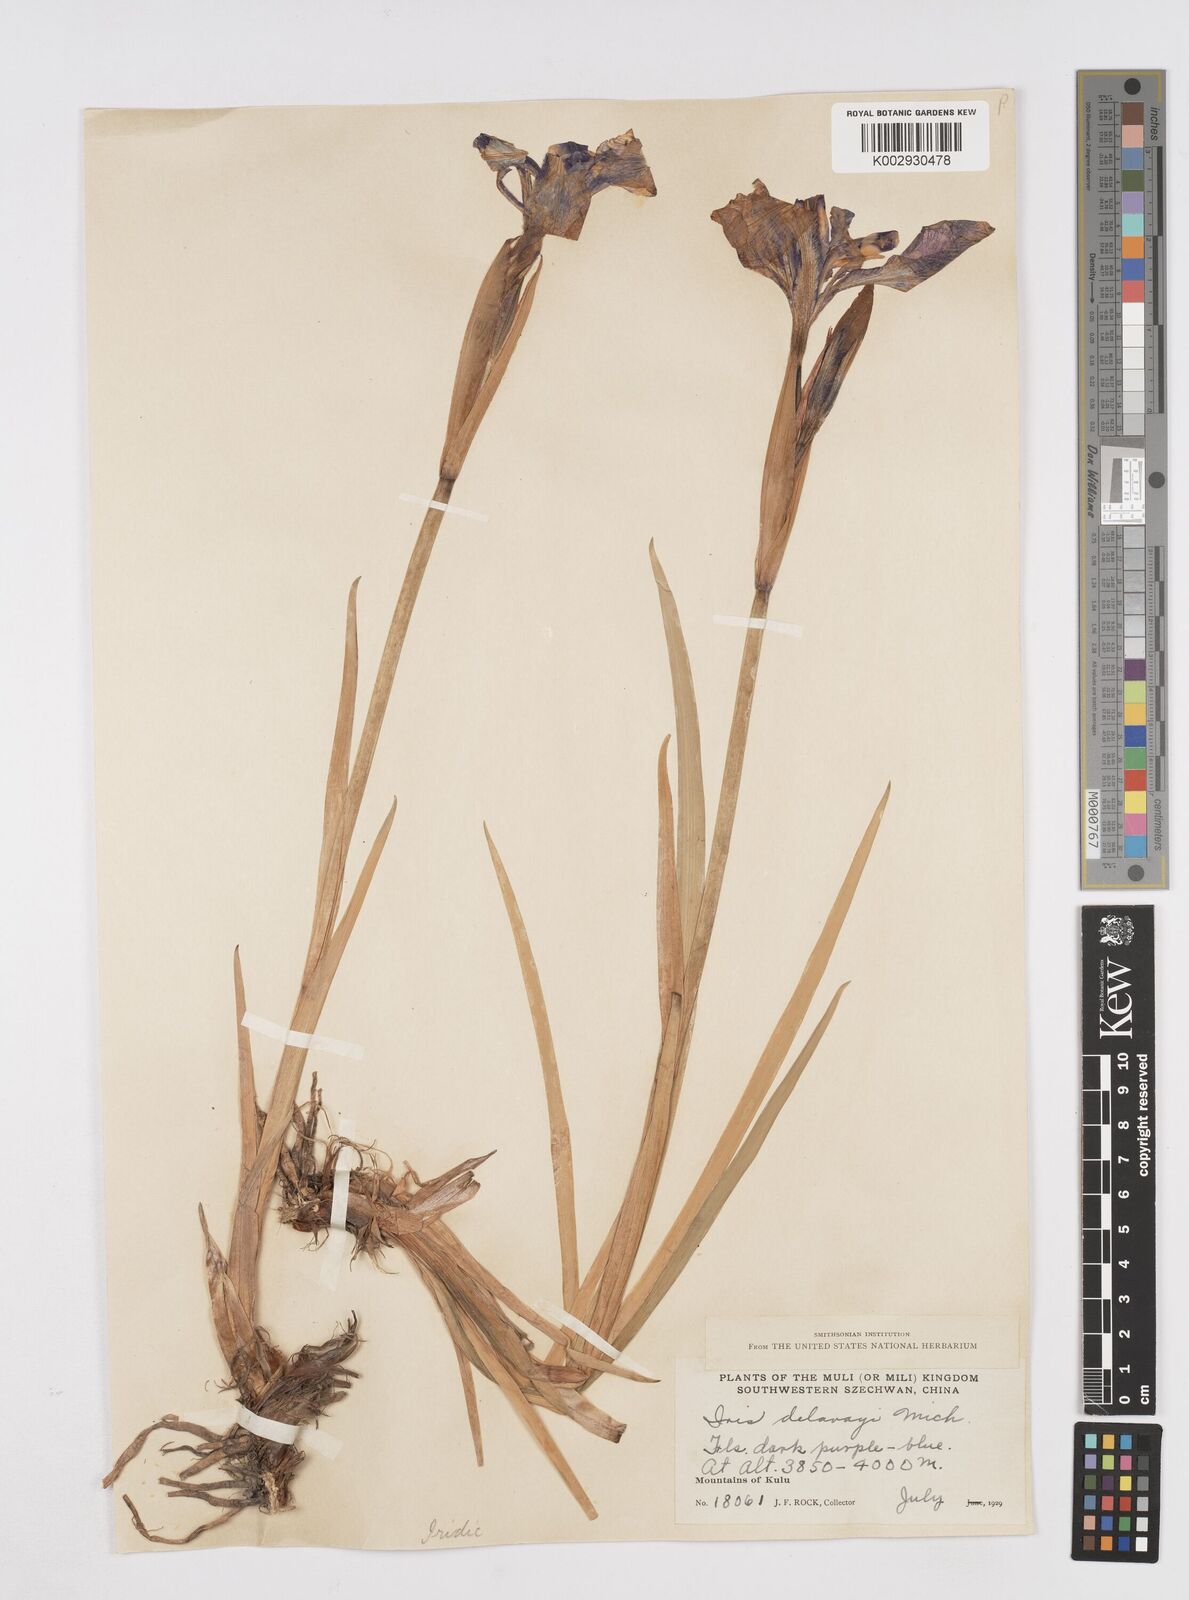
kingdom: Plantae
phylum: Tracheophyta
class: Liliopsida
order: Asparagales
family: Iridaceae
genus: Iris
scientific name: Iris delavayi
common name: Long-scape iris
